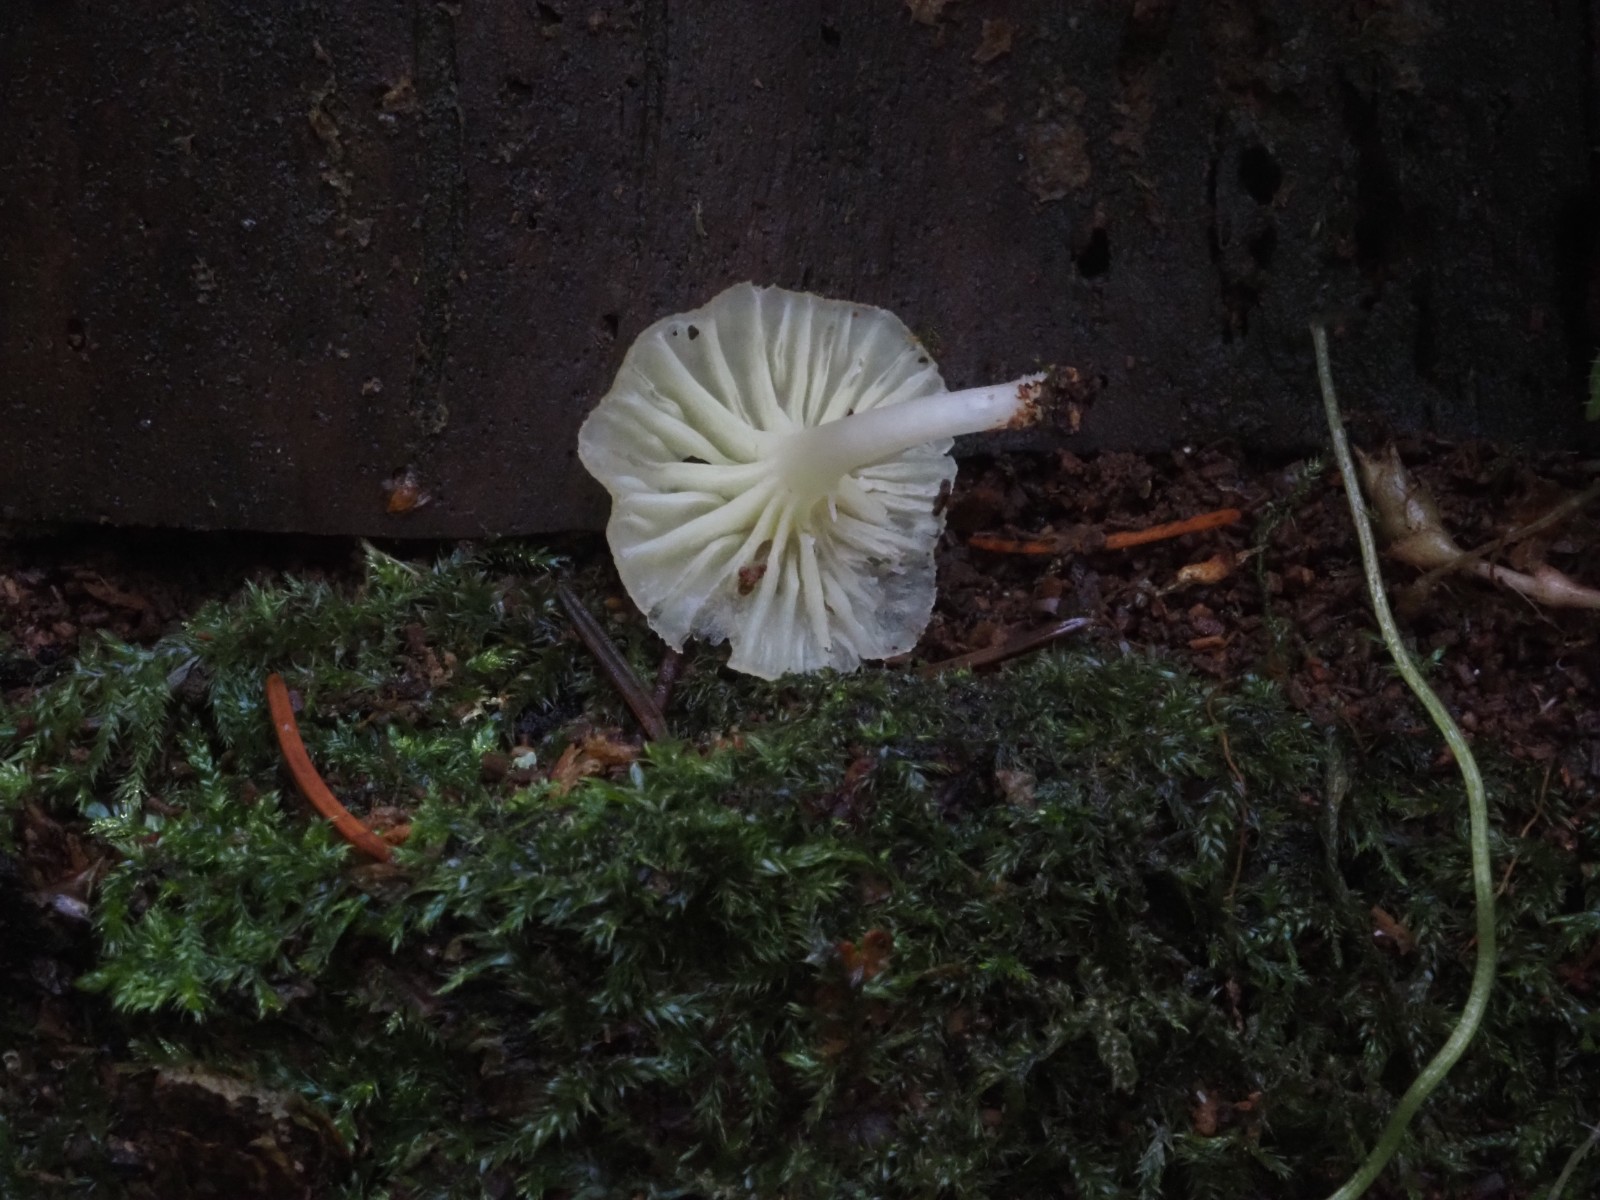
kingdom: Fungi
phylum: Basidiomycota
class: Agaricomycetes
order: Agaricales
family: Hygrophoraceae
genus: Chrysomphalina
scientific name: Chrysomphalina grossula
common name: stød-gyldenblad
